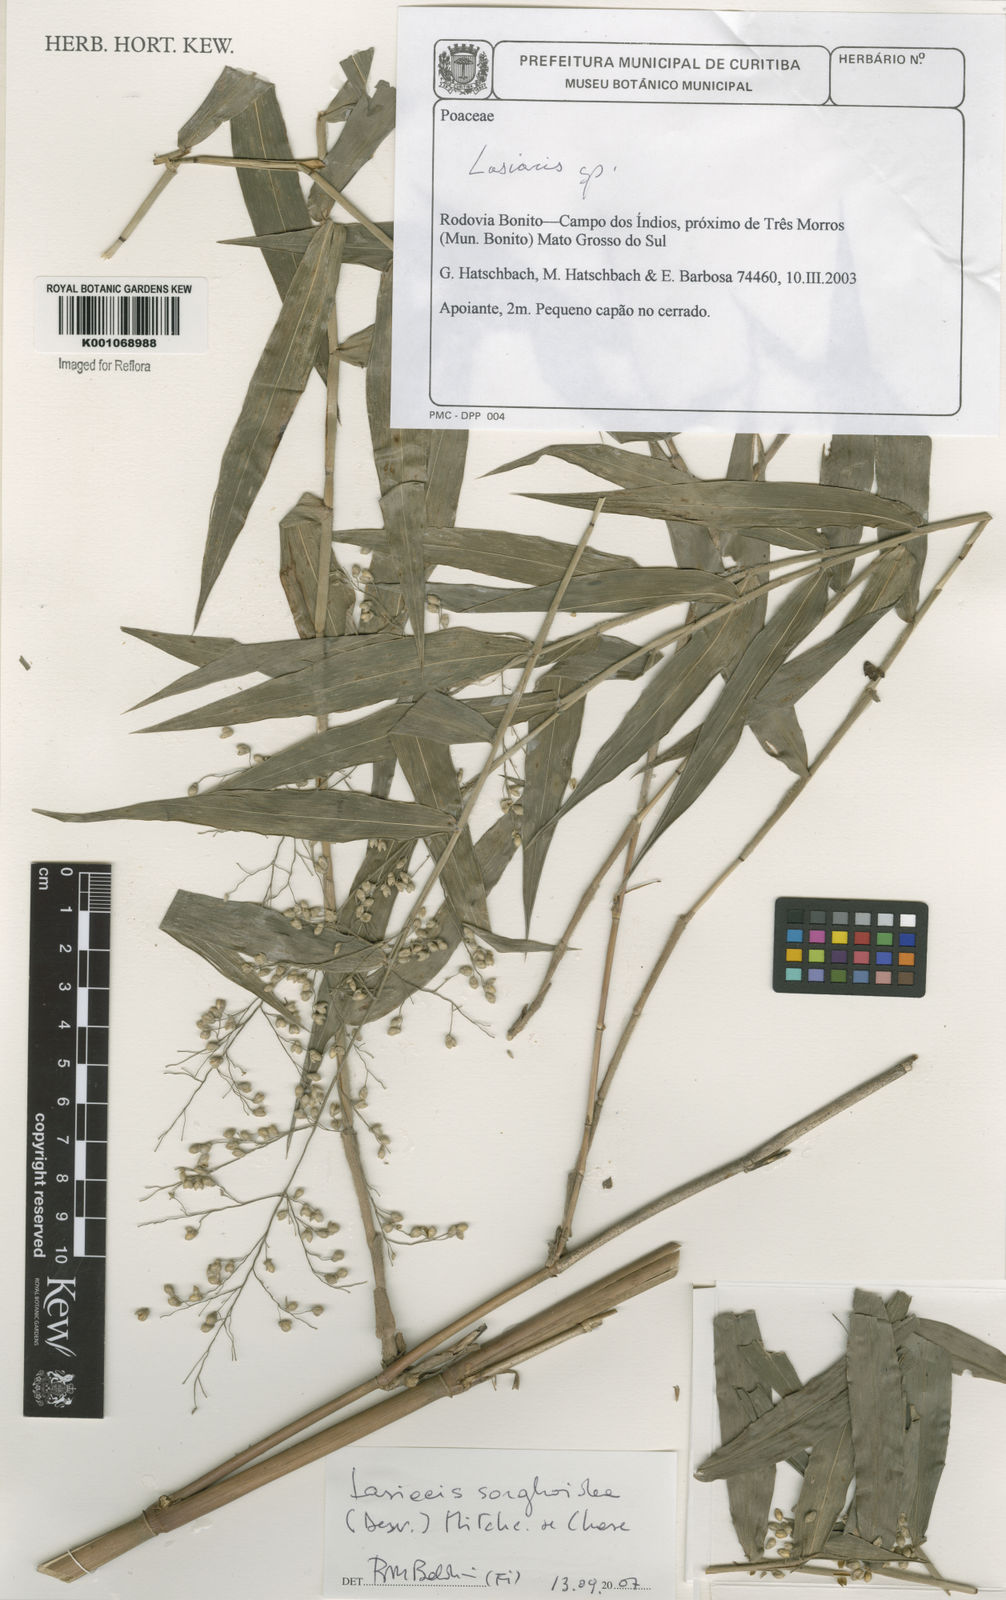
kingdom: Plantae
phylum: Tracheophyta
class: Liliopsida
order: Poales
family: Poaceae
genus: Lasiacis
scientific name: Lasiacis maculata
